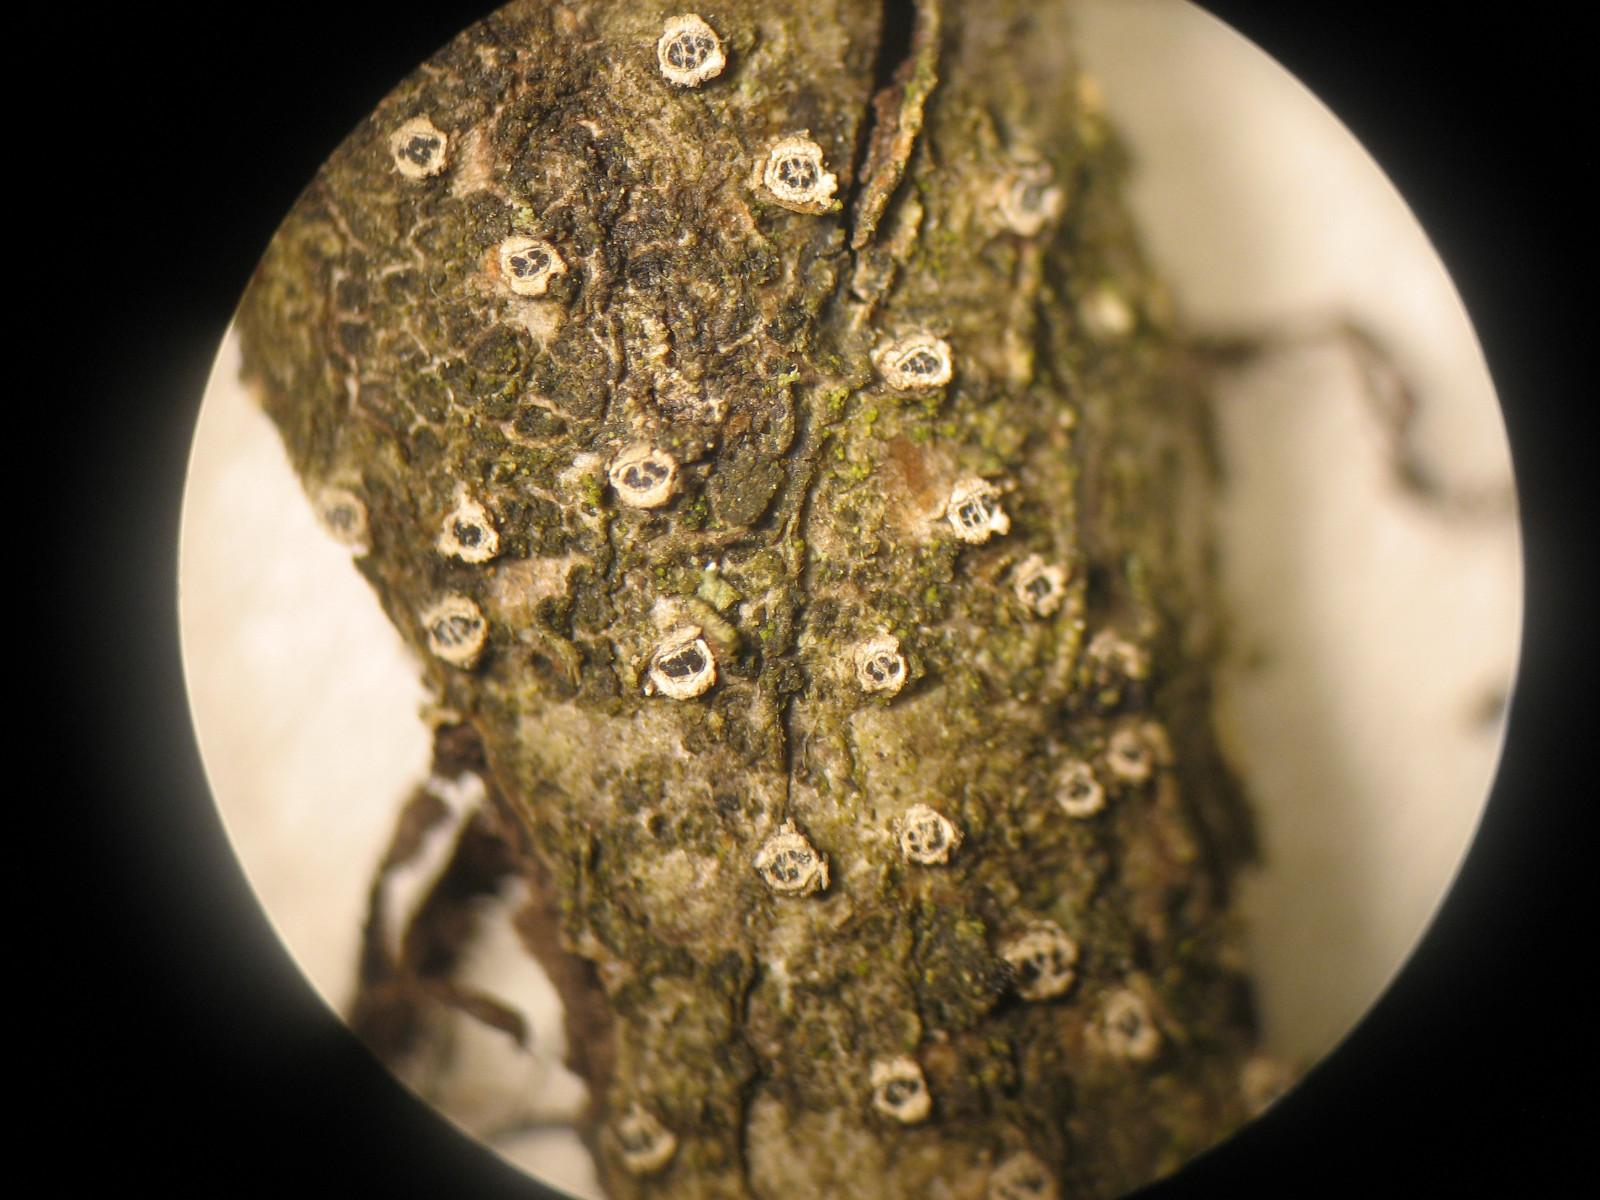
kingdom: Fungi
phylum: Ascomycota
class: Sordariomycetes
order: Diaporthales
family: Valsaceae
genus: Cytospora
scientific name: Cytospora nivea
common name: hvidskivet kulknippe
